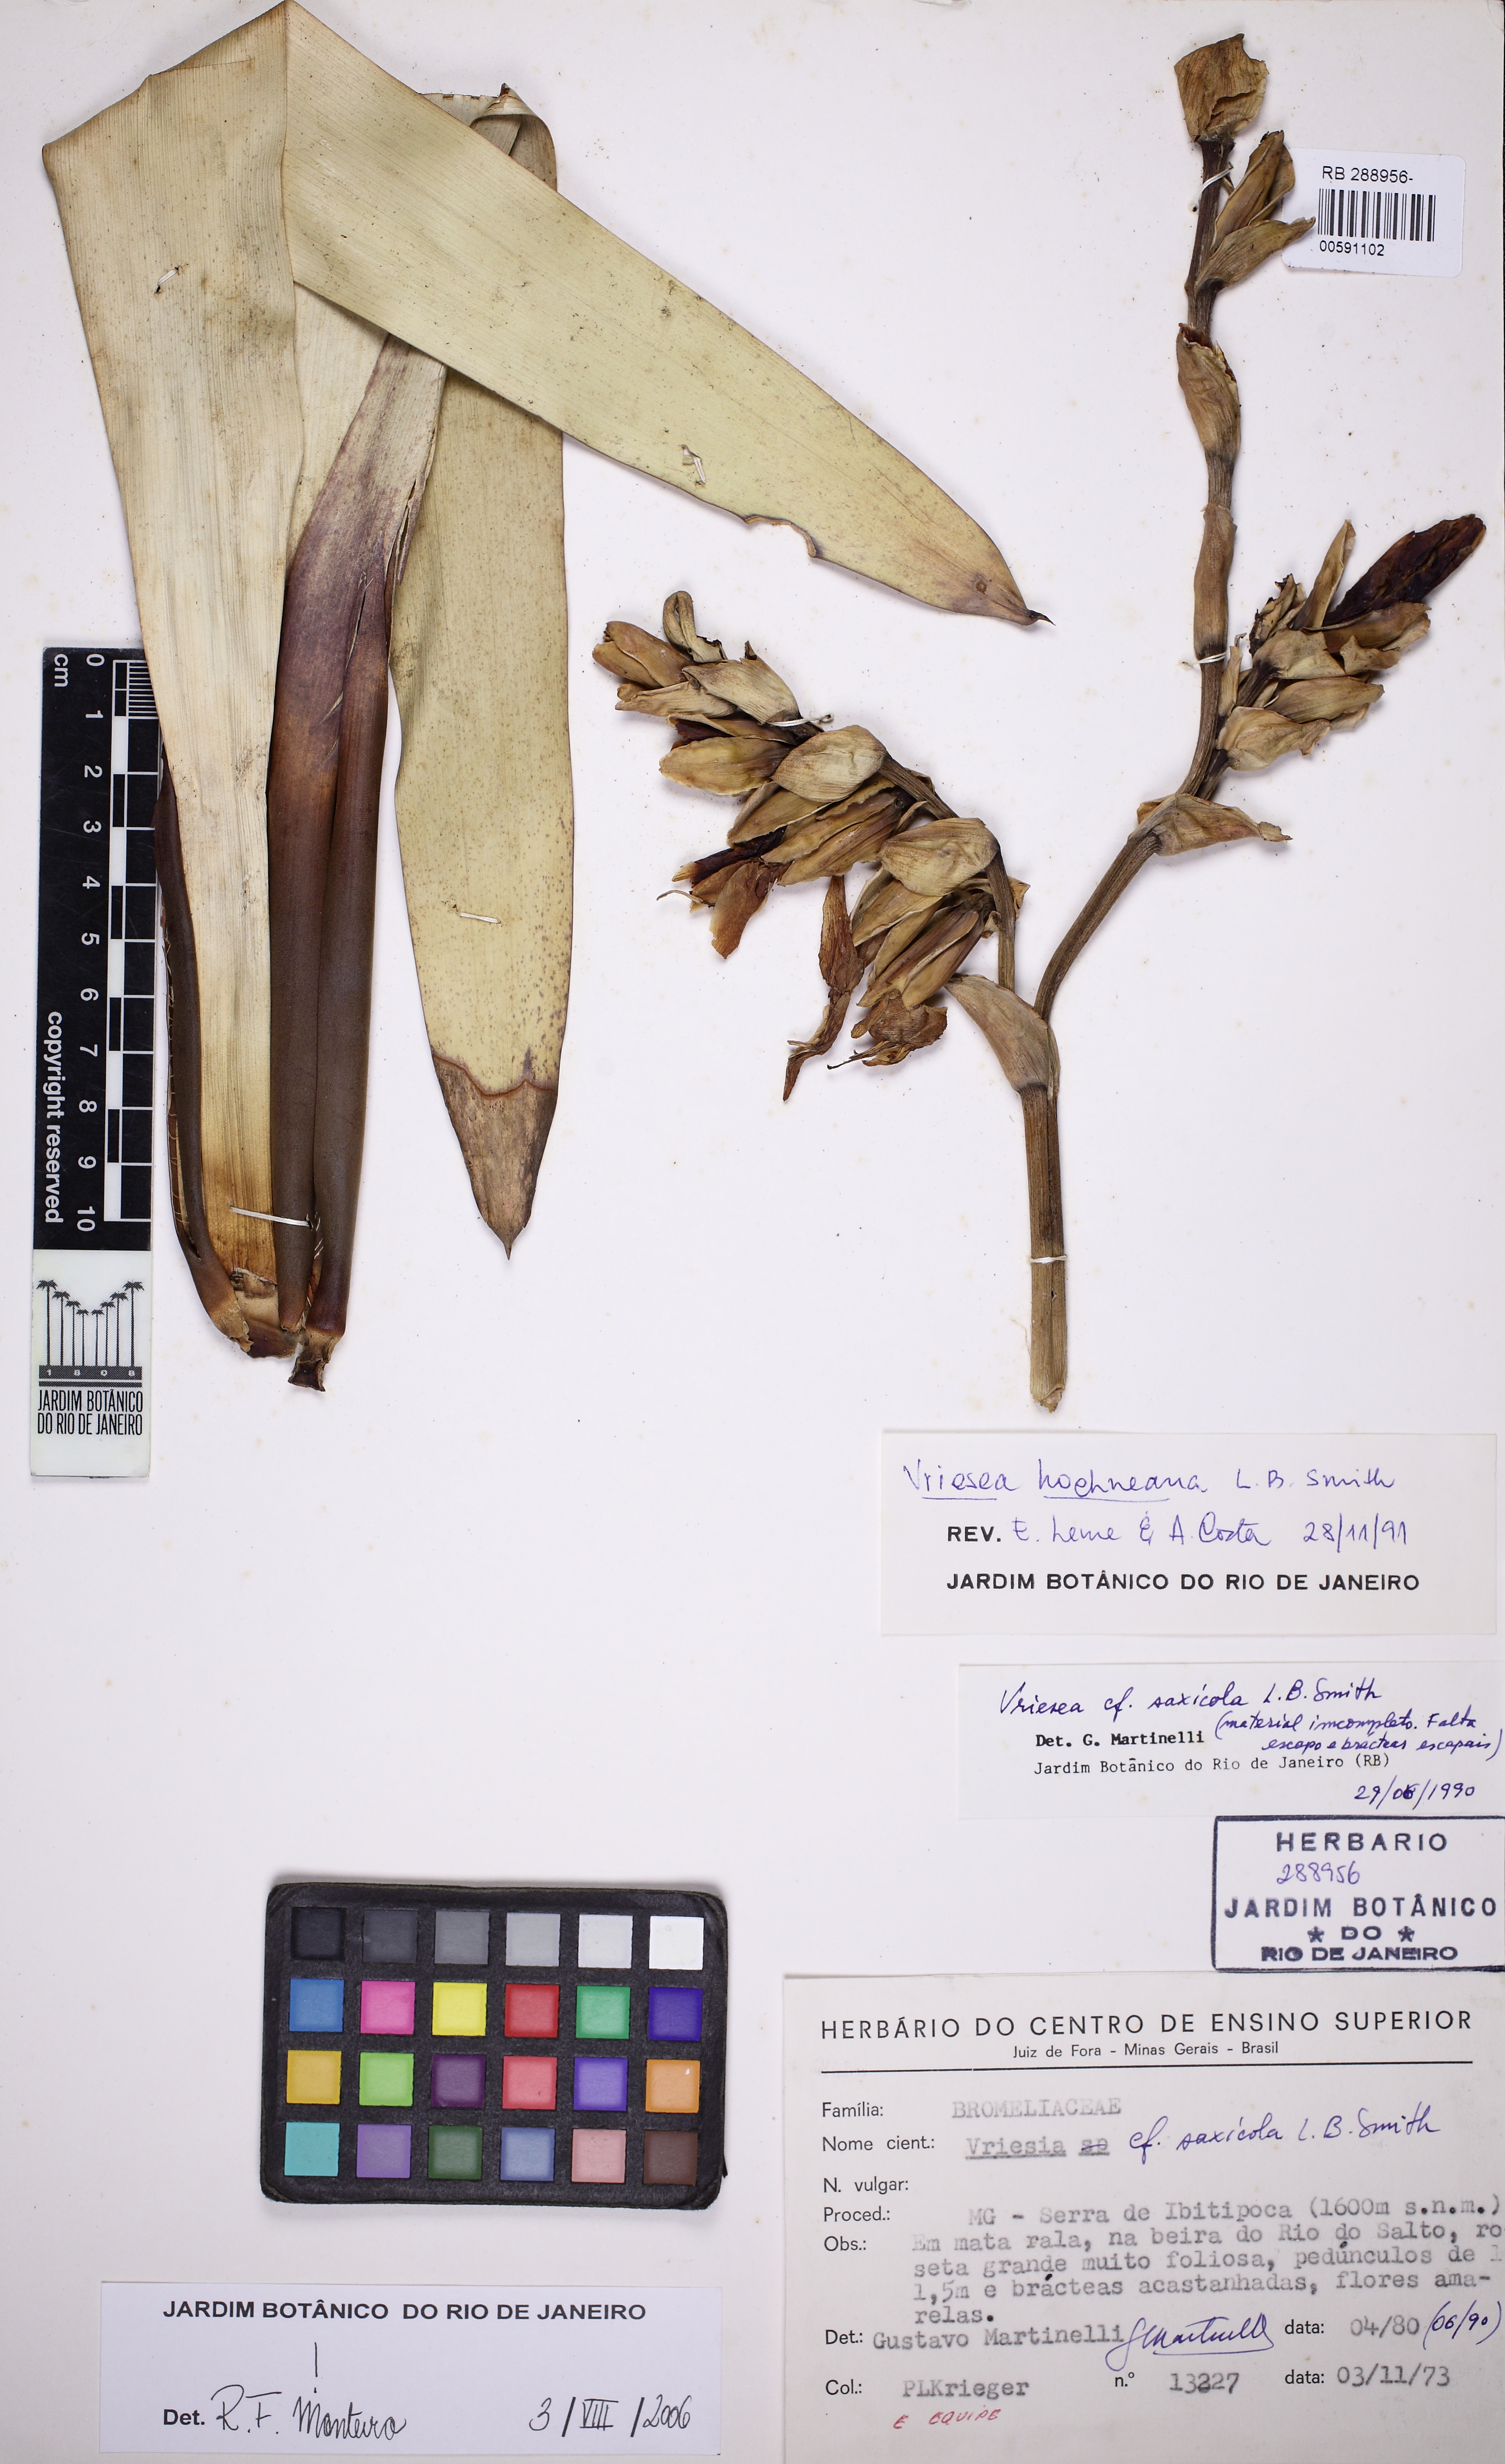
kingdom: Plantae
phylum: Tracheophyta
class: Liliopsida
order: Poales
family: Bromeliaceae
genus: Vriesea
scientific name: Vriesea hoehneana
